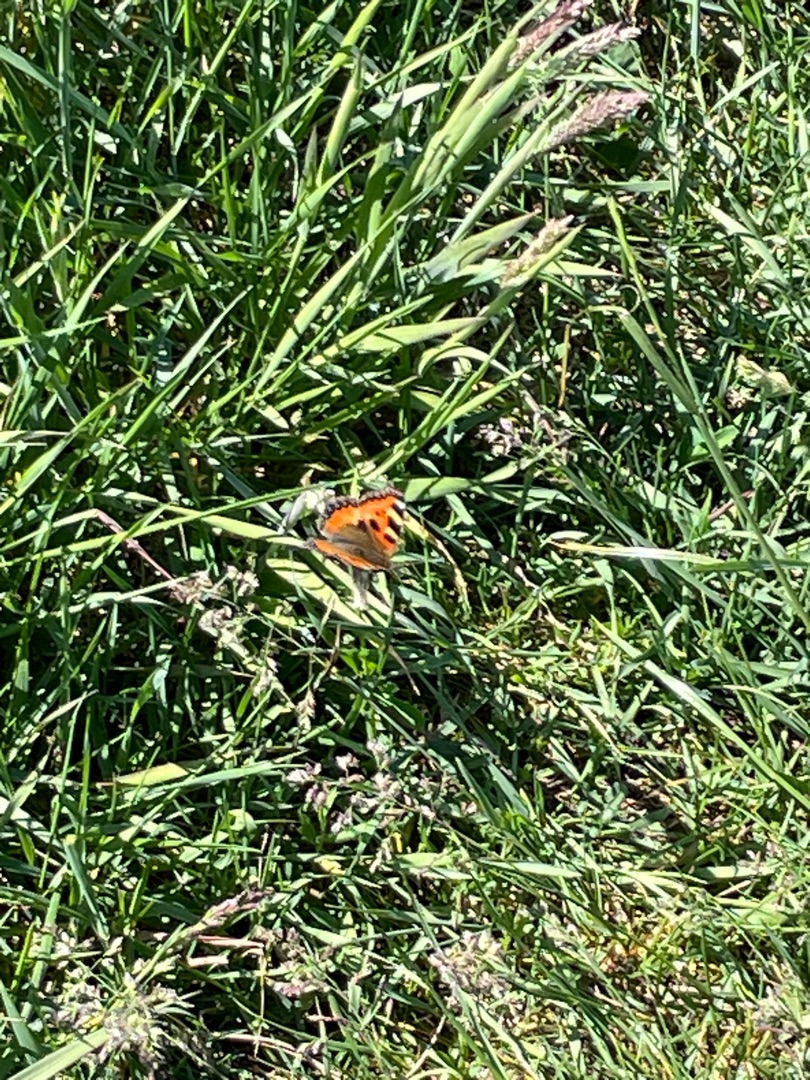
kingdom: Animalia
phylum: Arthropoda
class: Insecta
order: Lepidoptera
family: Nymphalidae
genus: Aglais
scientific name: Aglais urticae
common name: Nældens takvinge
